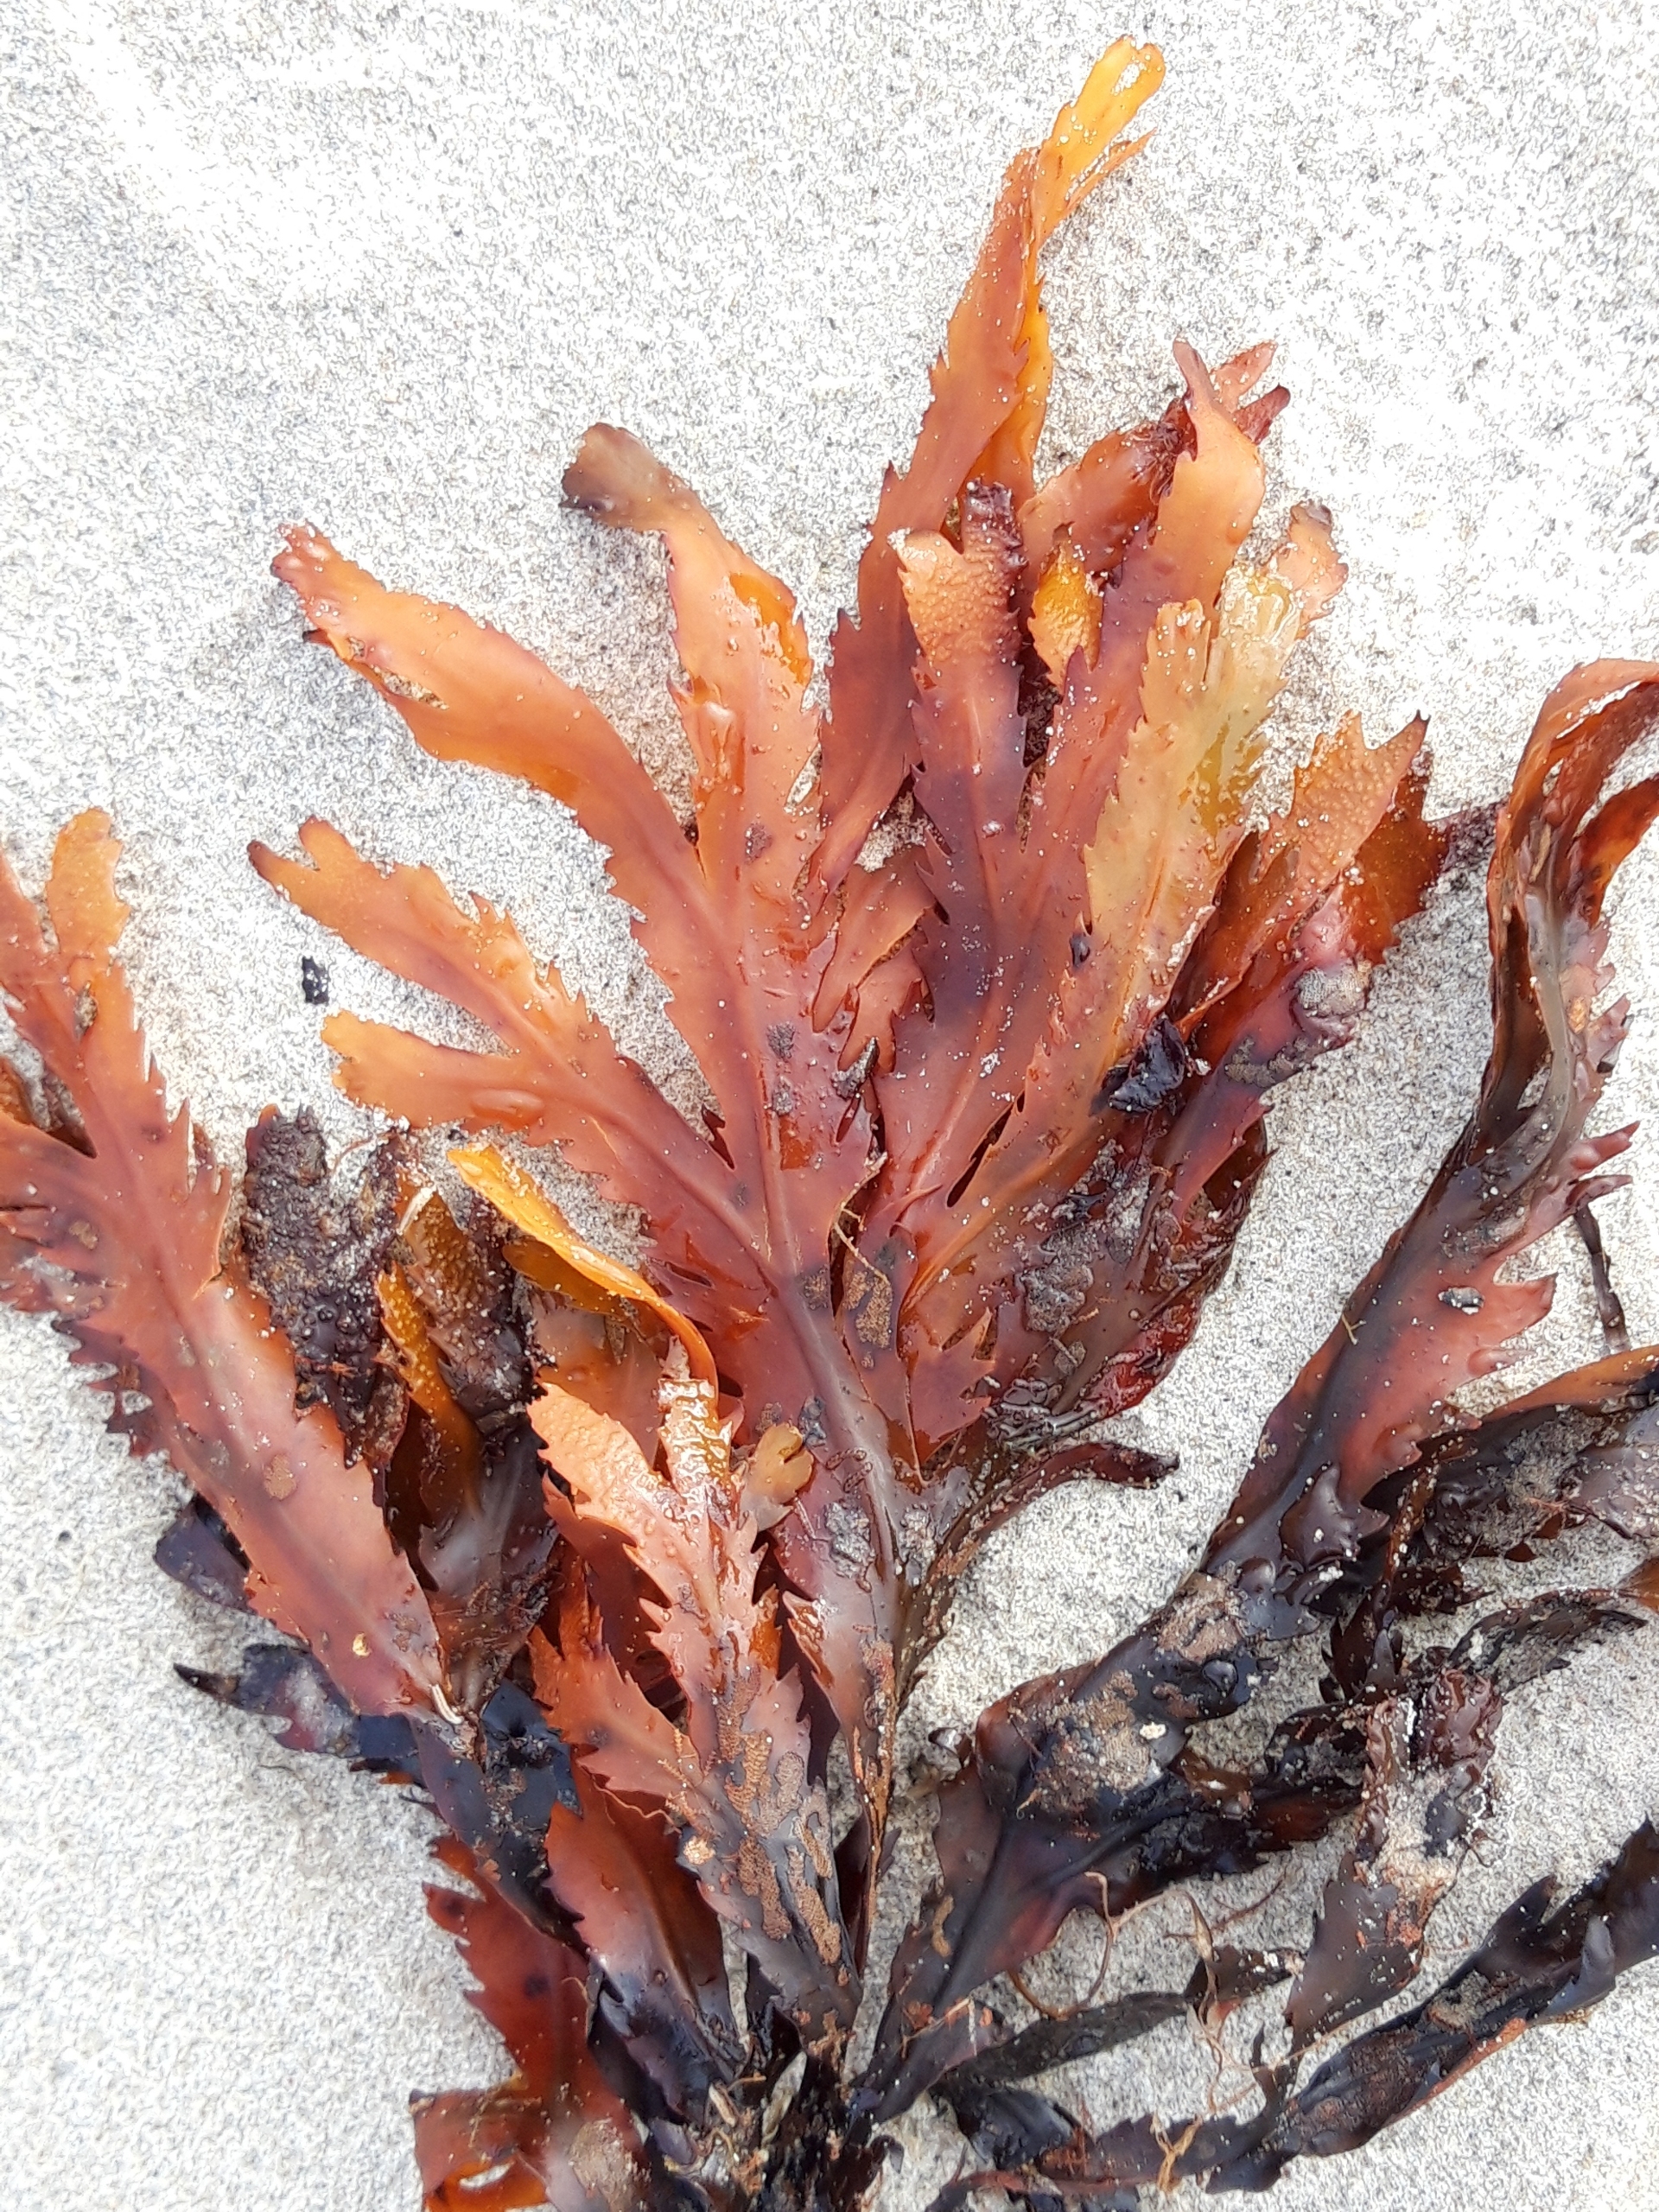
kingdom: Chromista
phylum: Ochrophyta
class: Phaeophyceae
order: Fucales
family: Fucaceae
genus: Fucus
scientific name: Fucus serratus
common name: Savtang
